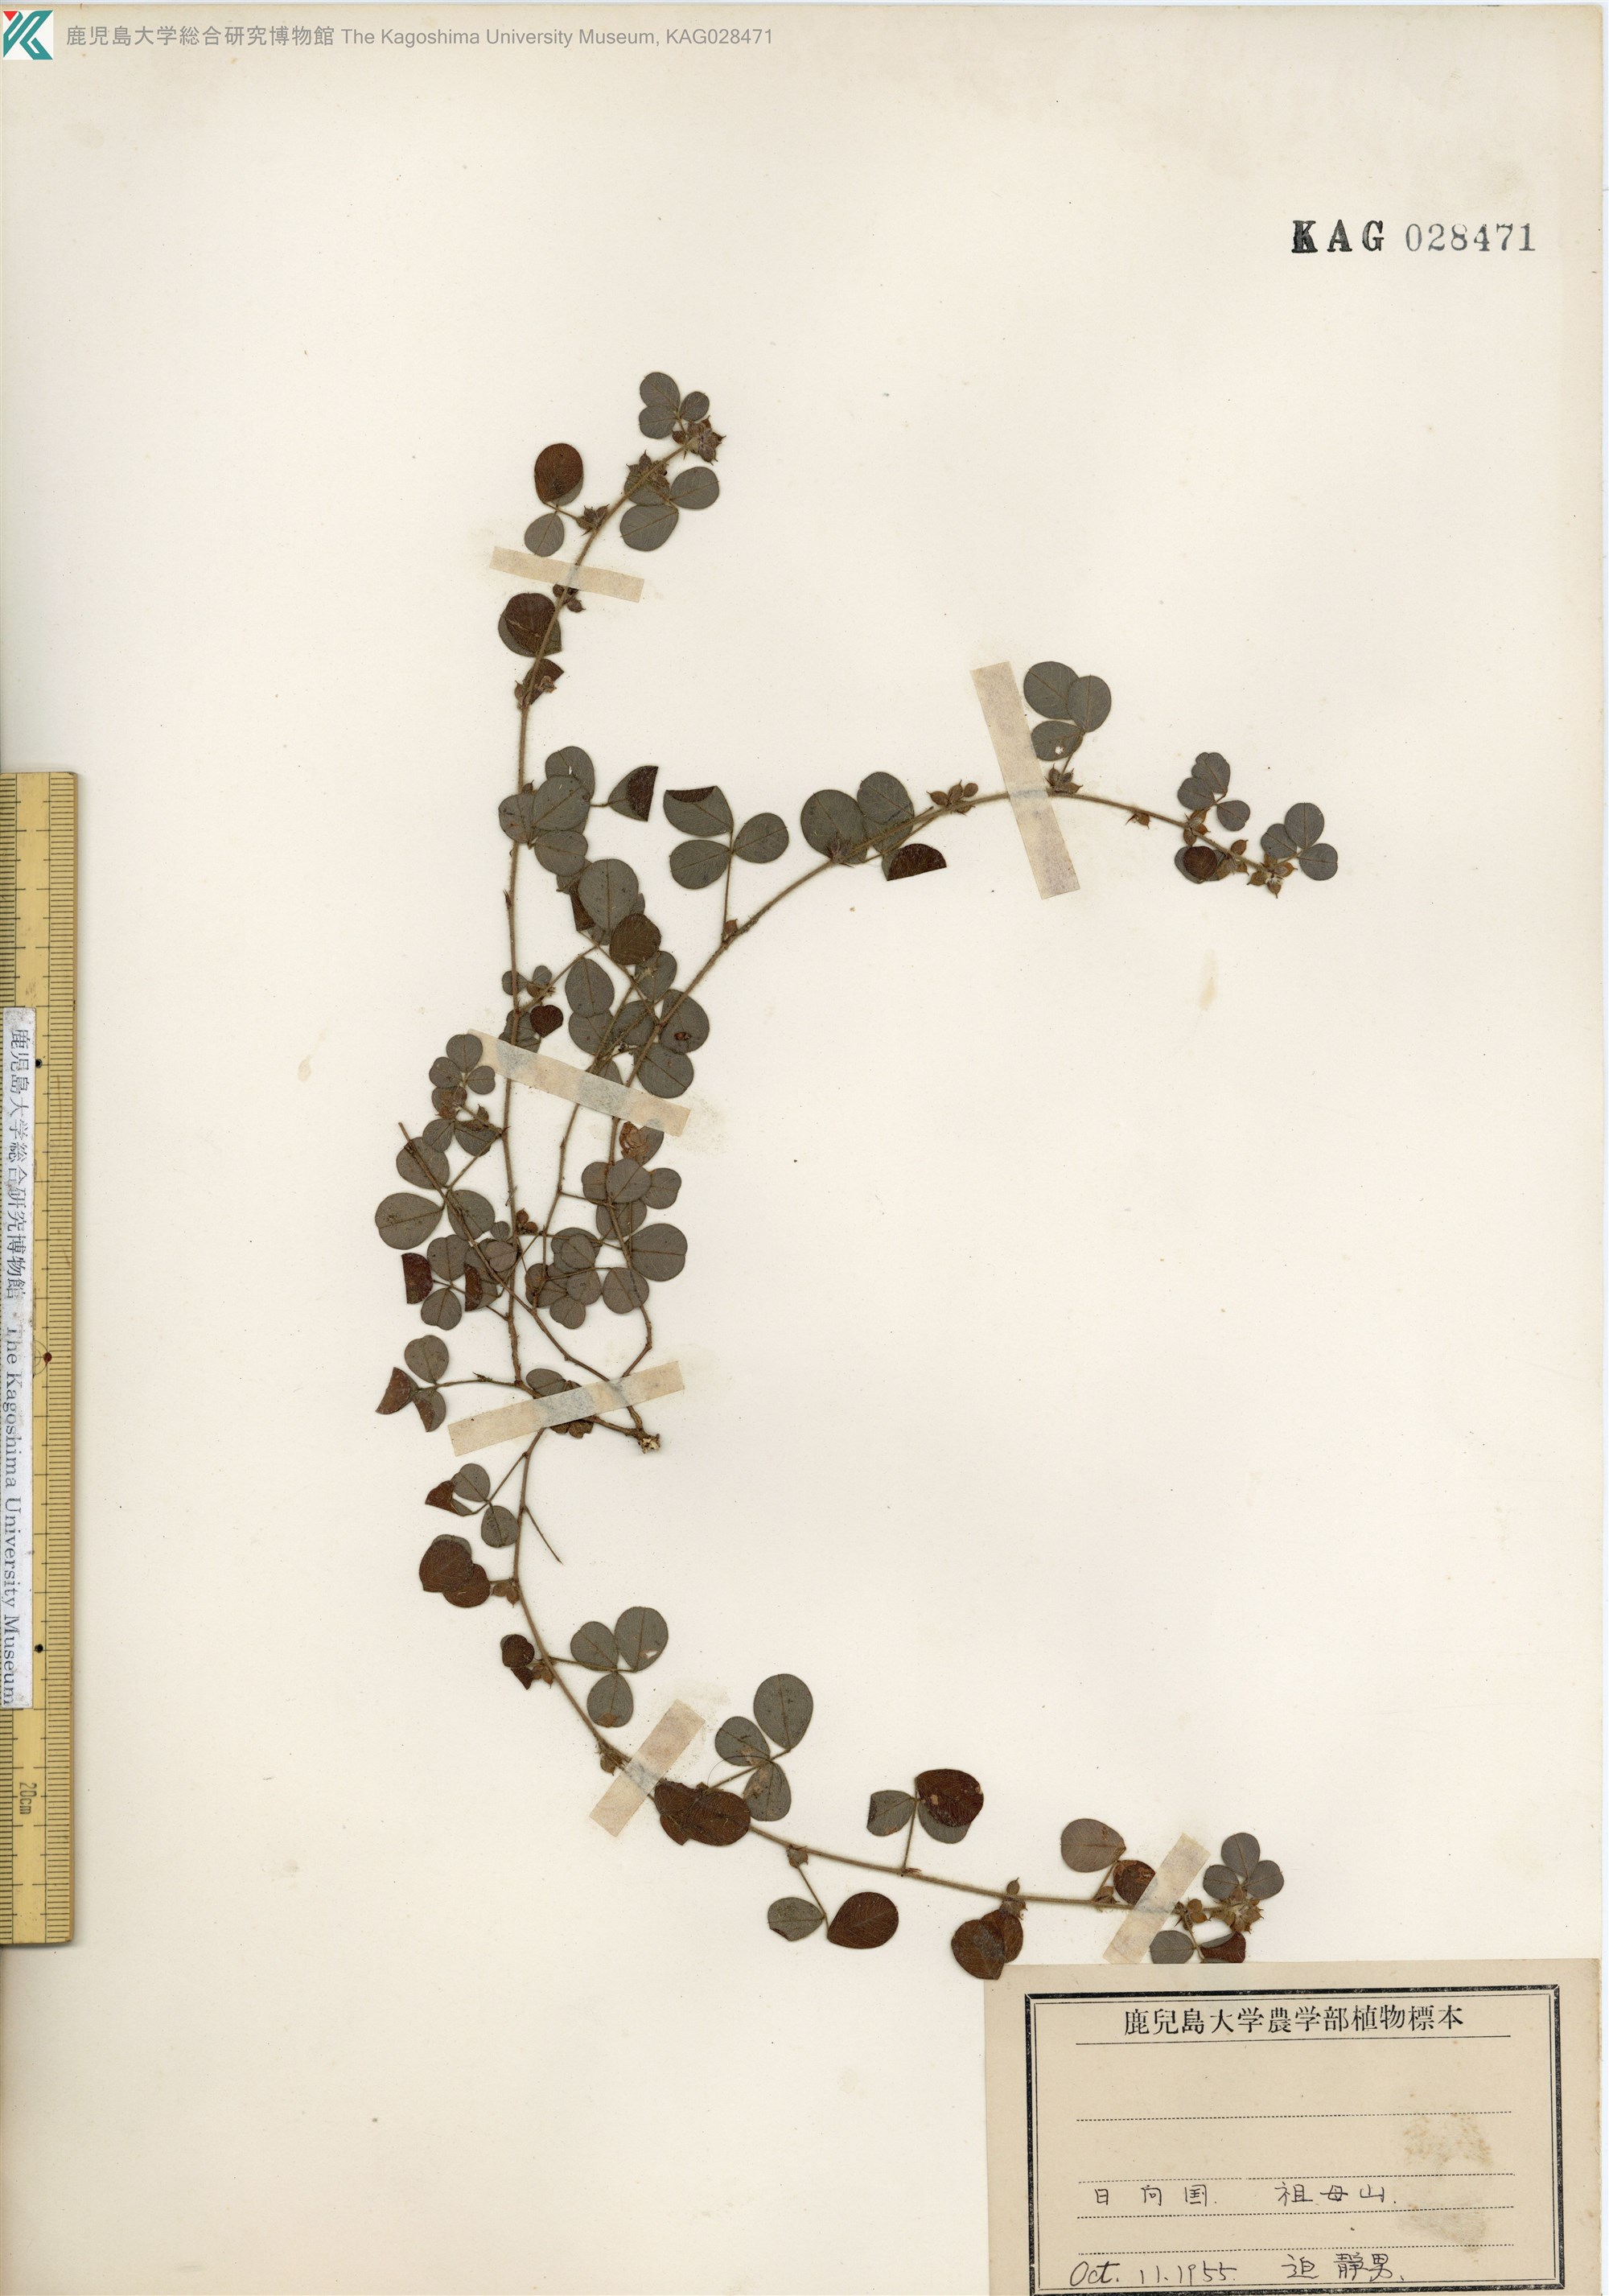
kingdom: Plantae
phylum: Tracheophyta
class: Magnoliopsida
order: Fabales
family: Fabaceae
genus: Lespedeza
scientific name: Lespedeza pilosa
